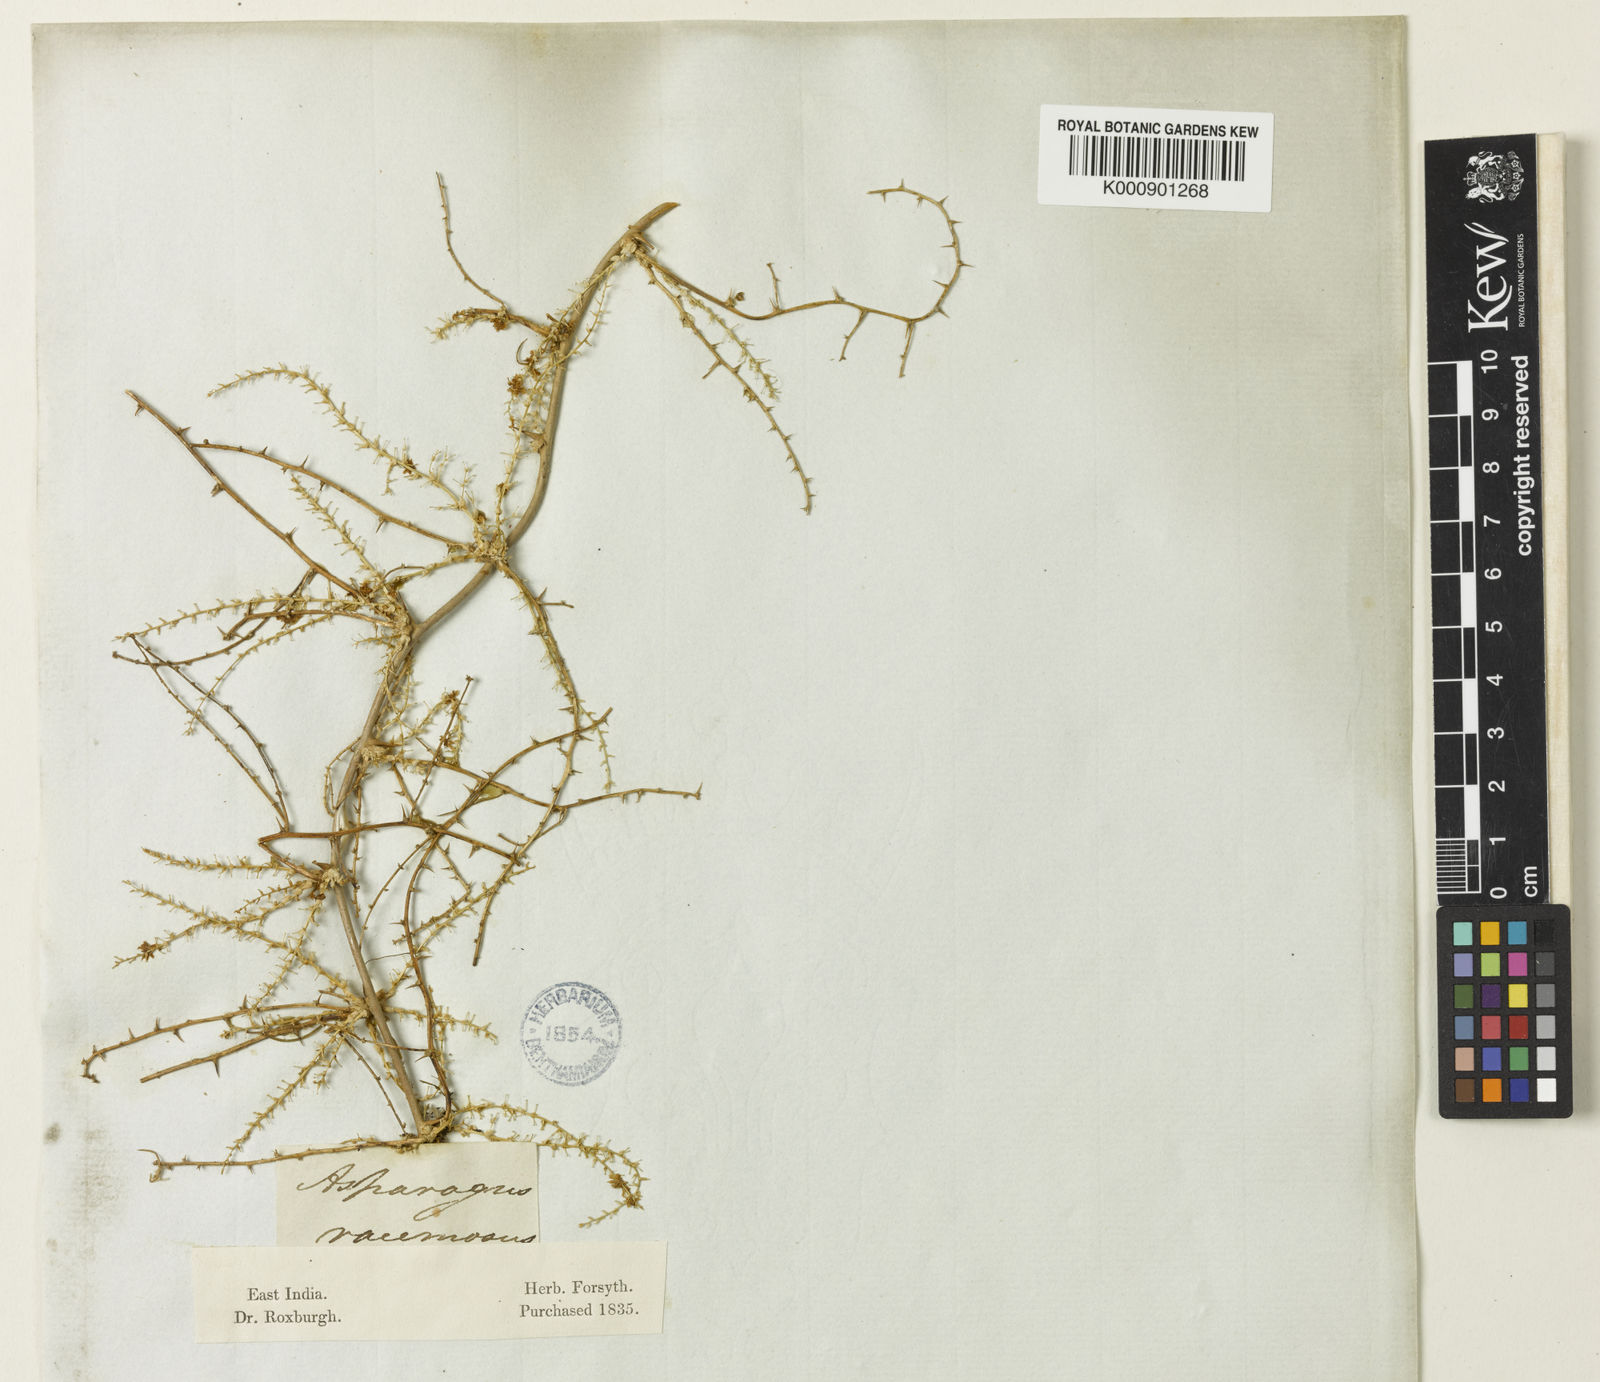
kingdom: Plantae
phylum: Tracheophyta
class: Liliopsida
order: Asparagales
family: Asparagaceae
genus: Asparagus
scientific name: Asparagus racemosus
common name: Asparagus-fern
